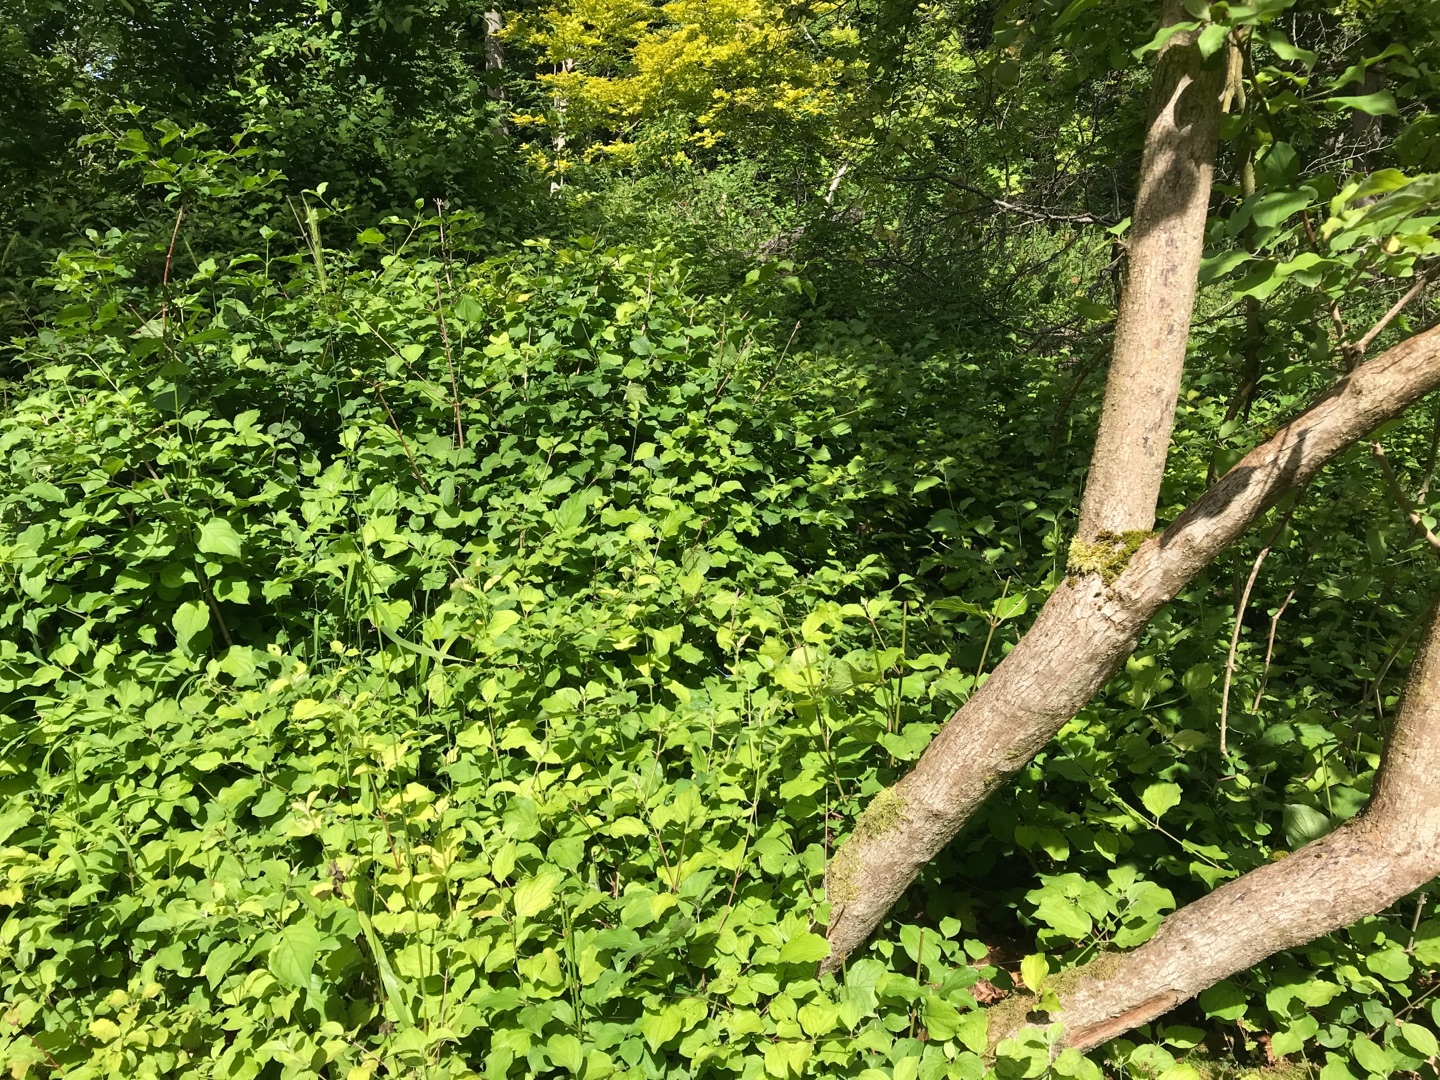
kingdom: Plantae
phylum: Tracheophyta
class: Magnoliopsida
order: Cornales
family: Cornaceae
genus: Cornus
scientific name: Cornus sanguinea
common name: Rød kornel
